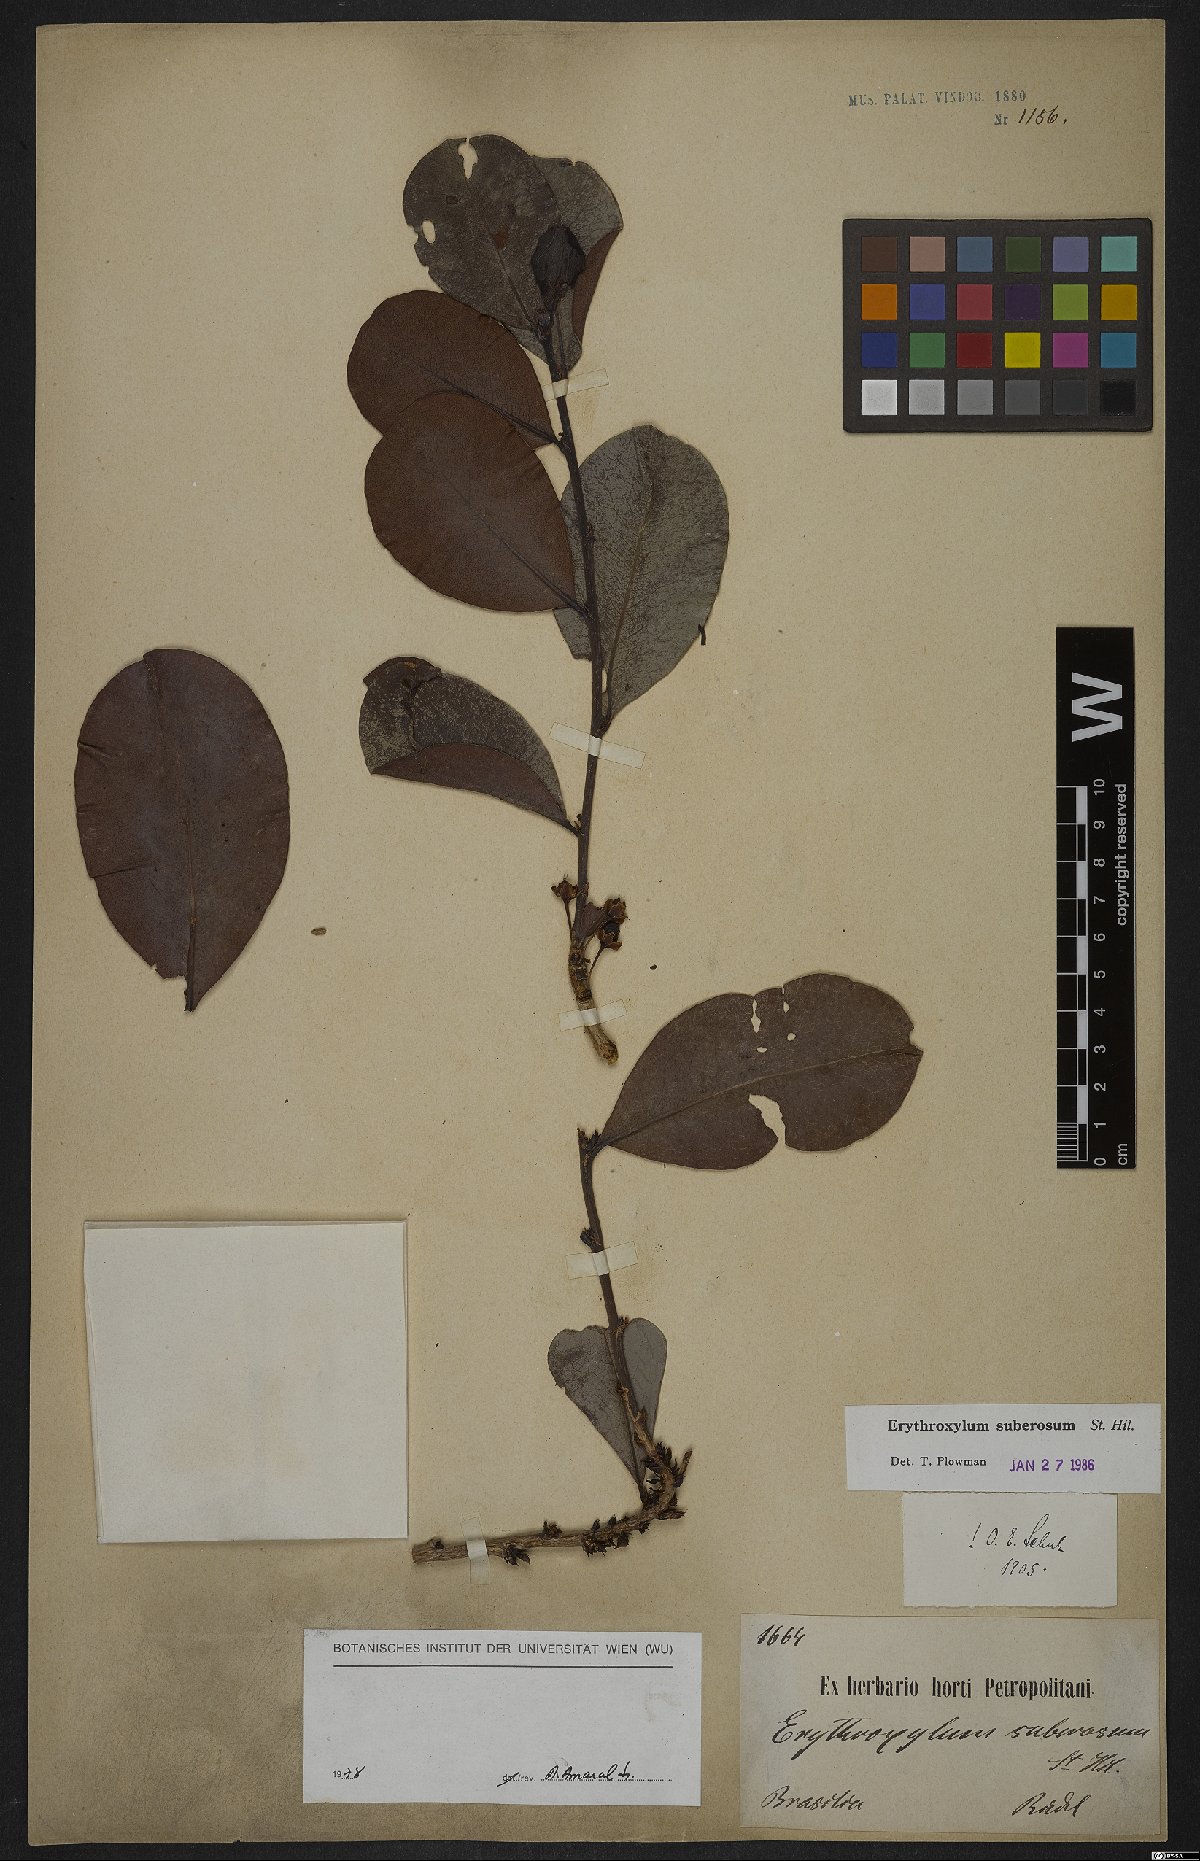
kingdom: Plantae
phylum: Tracheophyta
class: Magnoliopsida
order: Malpighiales
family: Erythroxylaceae
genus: Erythroxylum
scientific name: Erythroxylum suberosum
